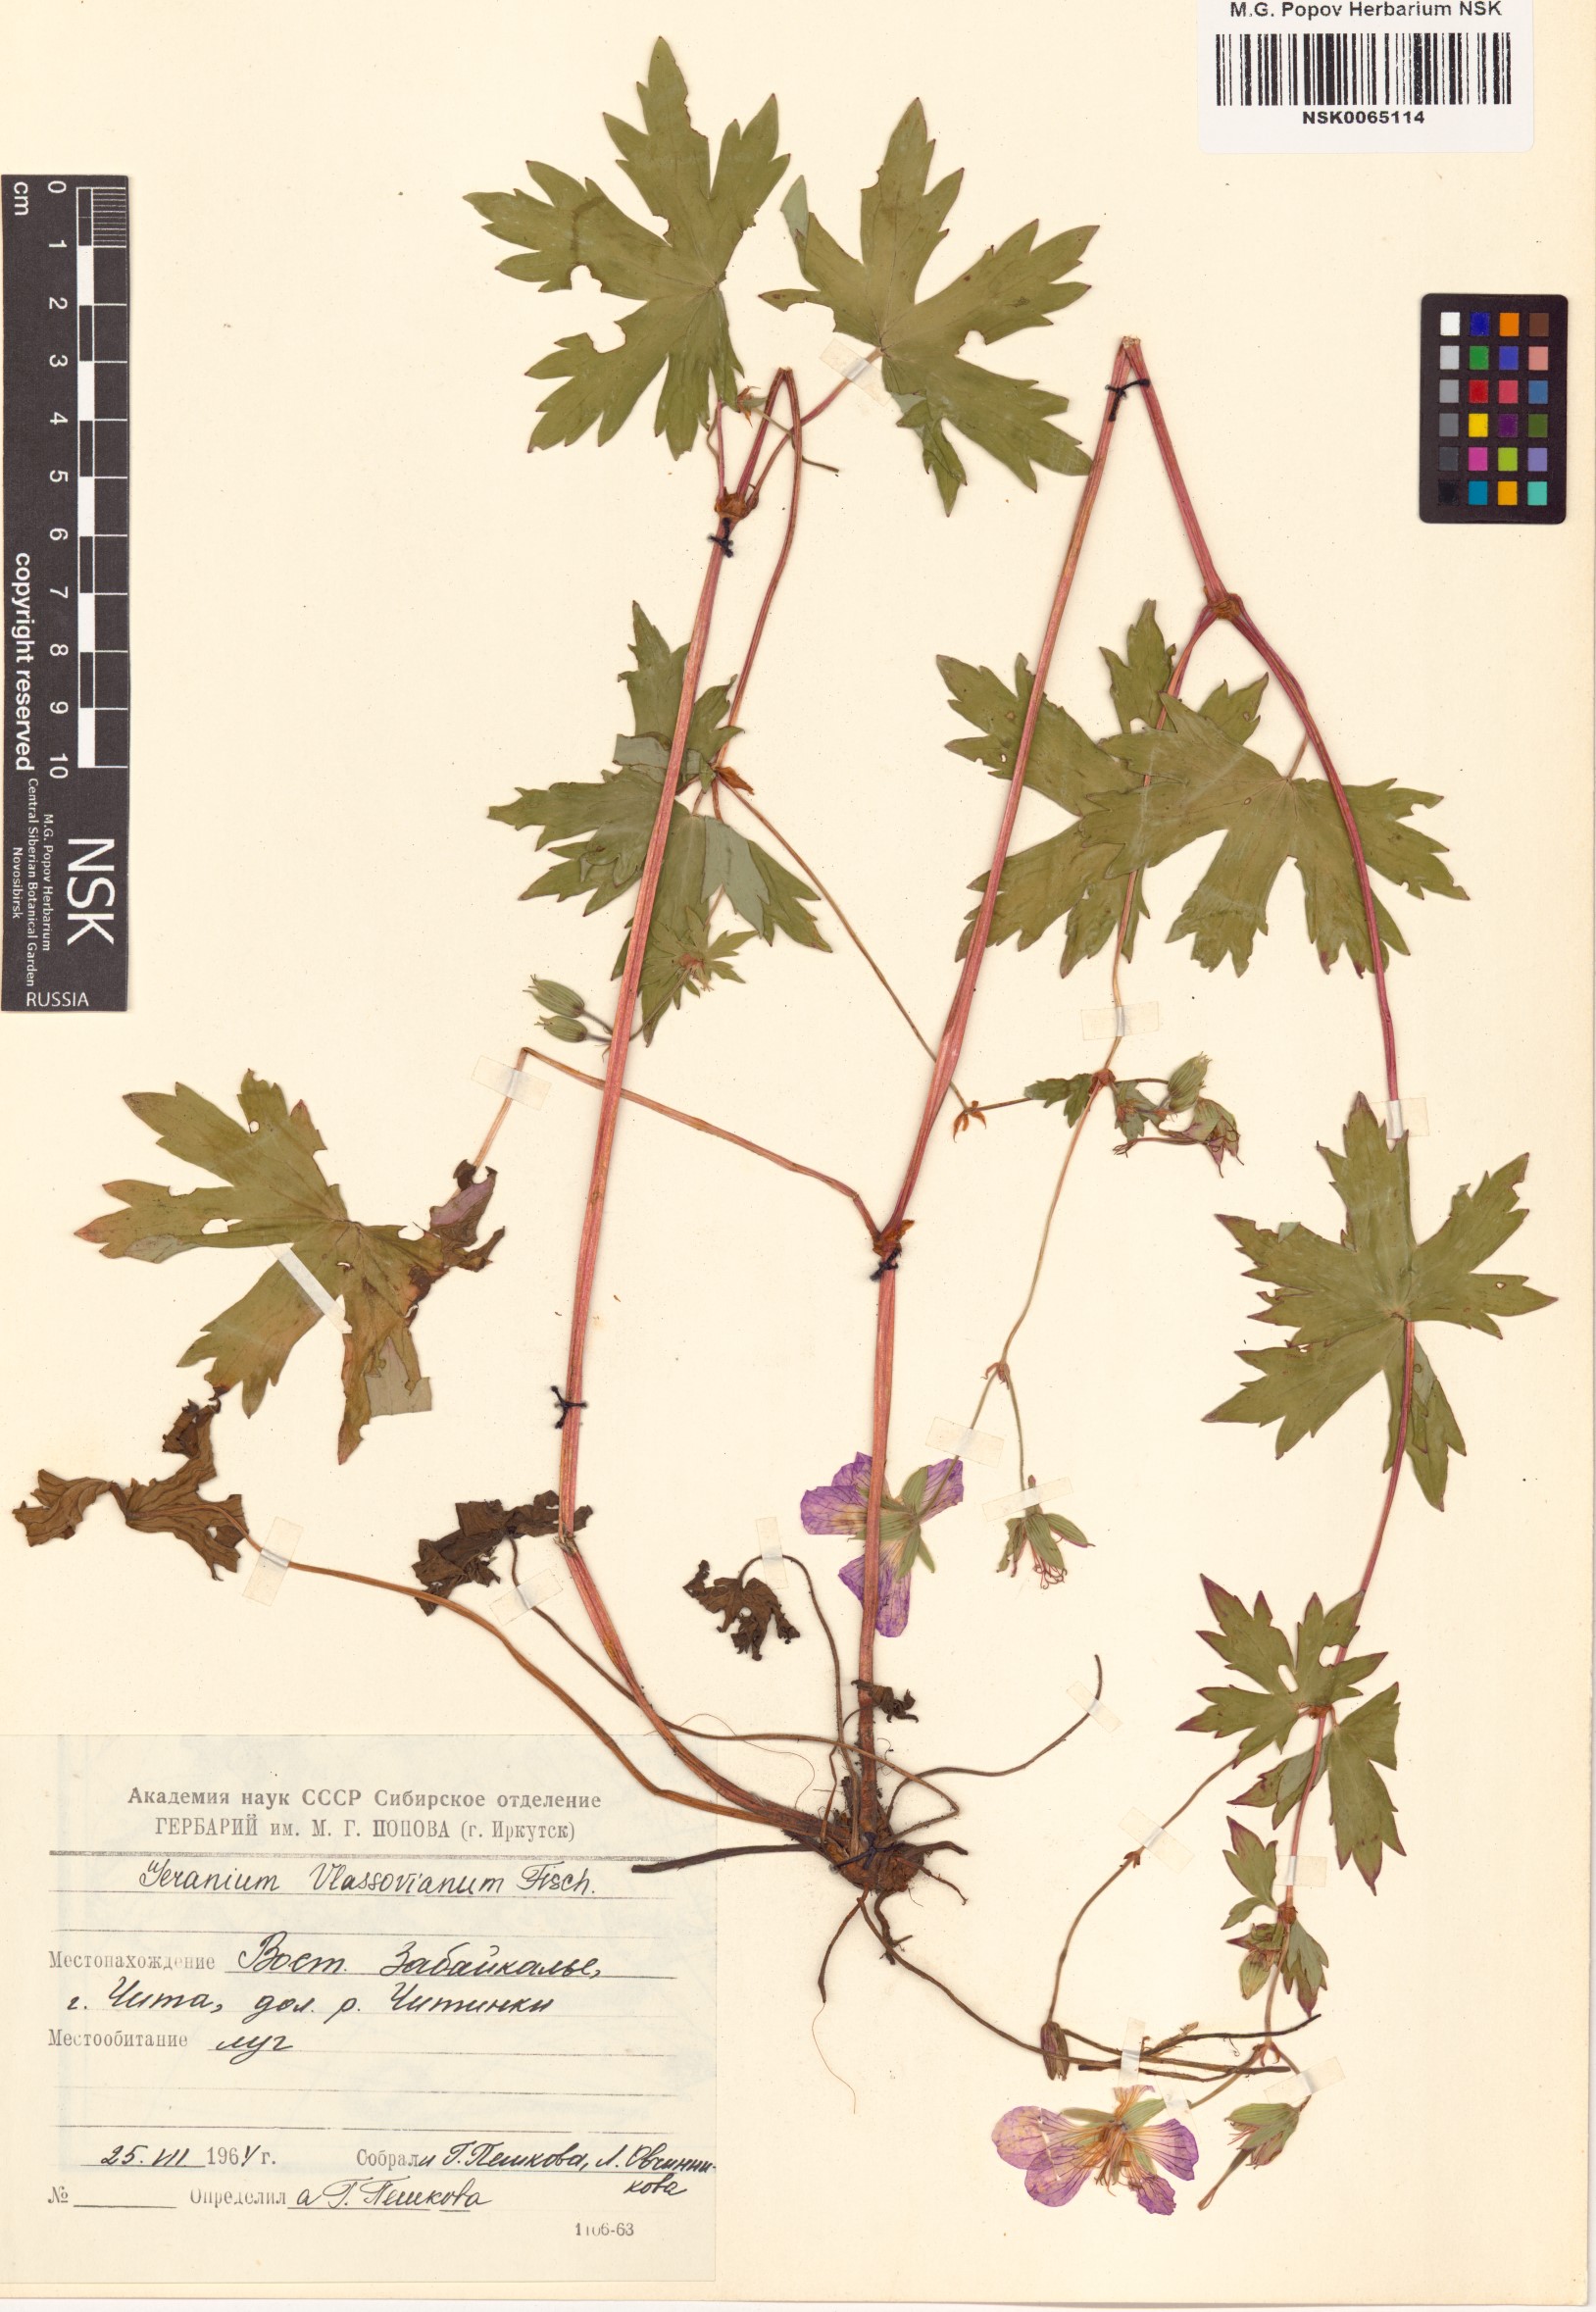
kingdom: Plantae
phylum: Tracheophyta
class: Magnoliopsida
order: Geraniales
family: Geraniaceae
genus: Geranium
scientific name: Geranium wlassovianum
